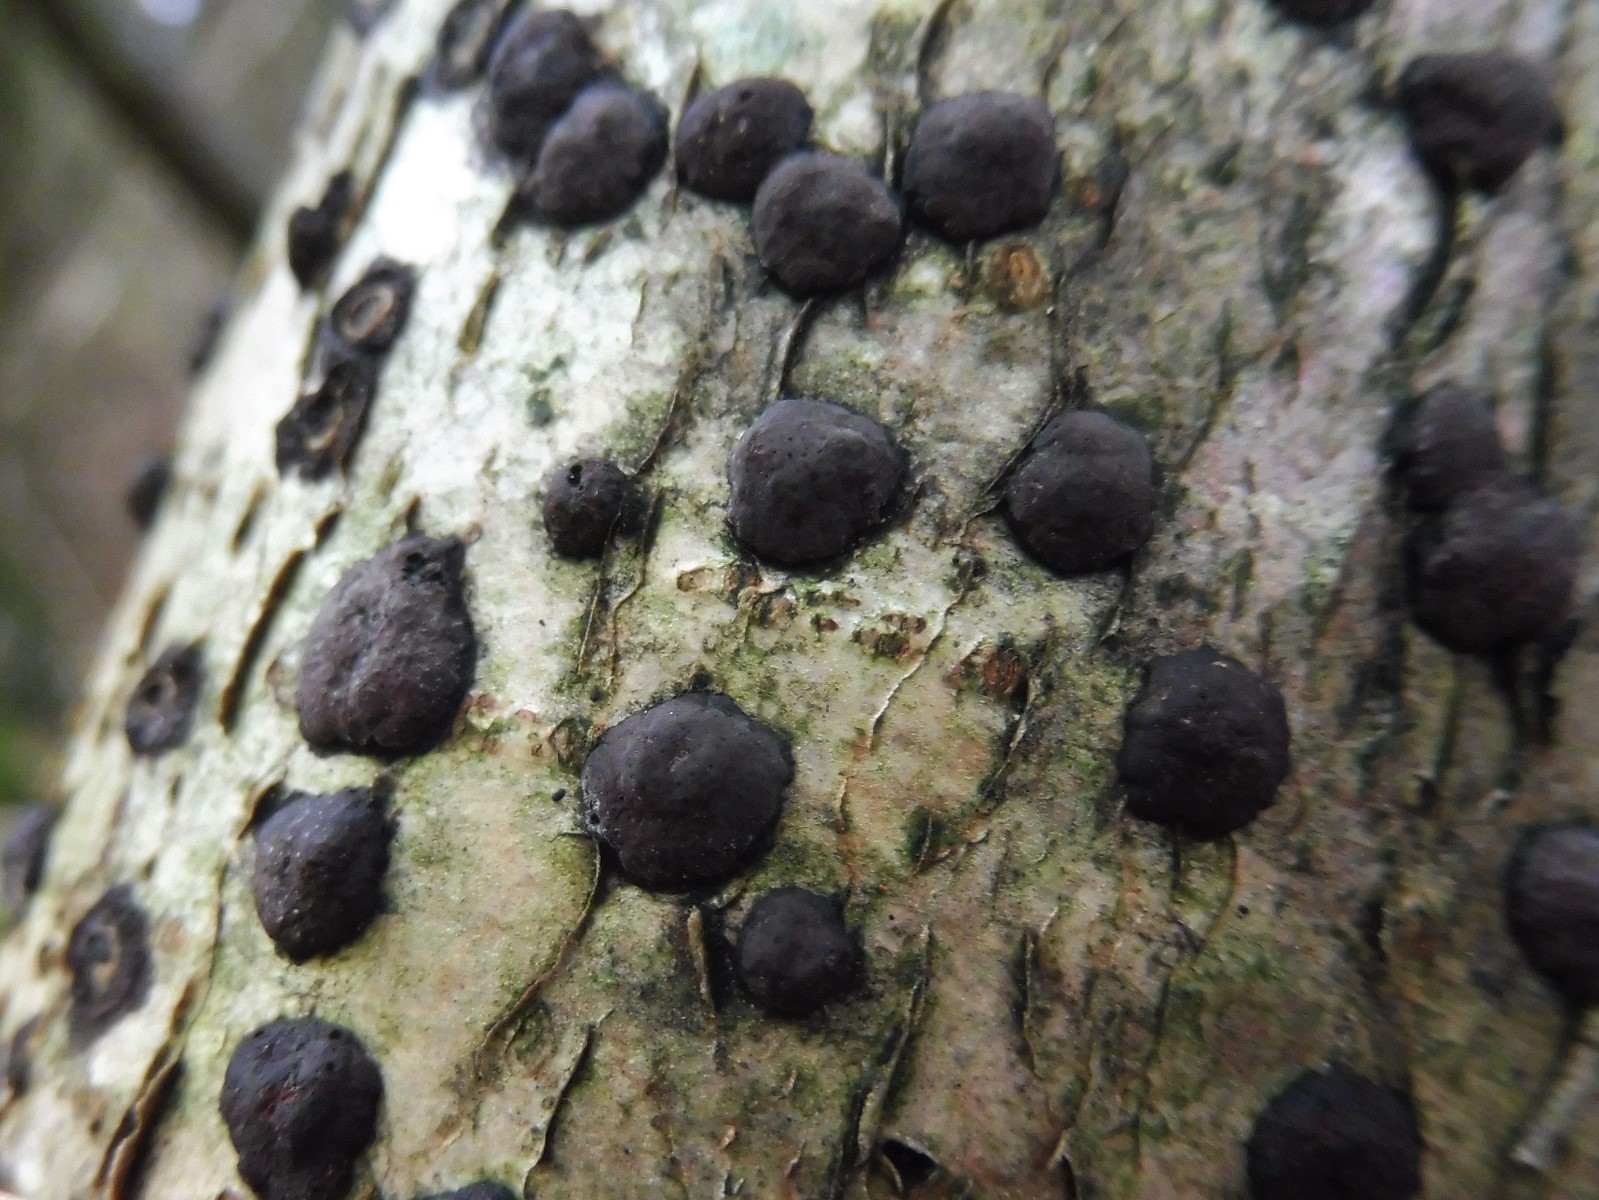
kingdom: Fungi
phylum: Ascomycota
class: Sordariomycetes
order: Xylariales
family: Hypoxylaceae
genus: Hypoxylon
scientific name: Hypoxylon fuscum
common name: kegleformet kulbær
